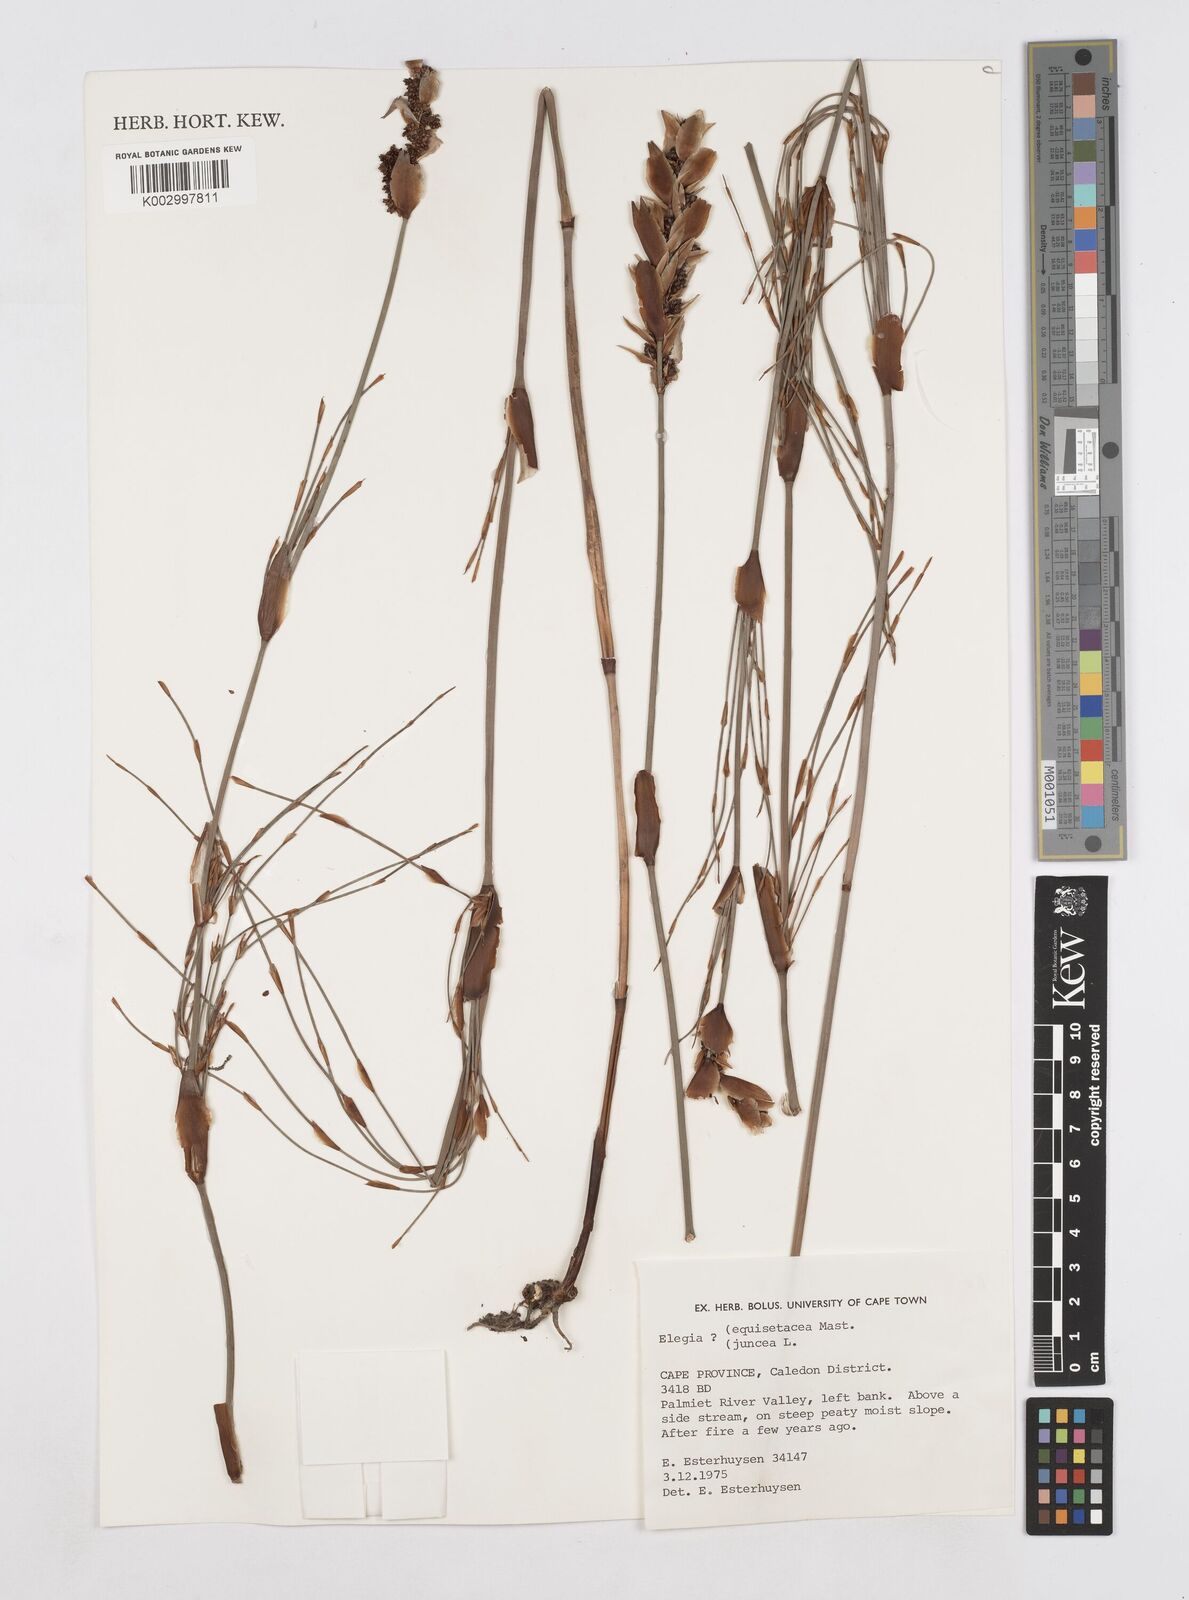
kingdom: Plantae
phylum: Tracheophyta
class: Liliopsida
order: Poales
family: Restionaceae
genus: Elegia
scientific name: Elegia juncea
